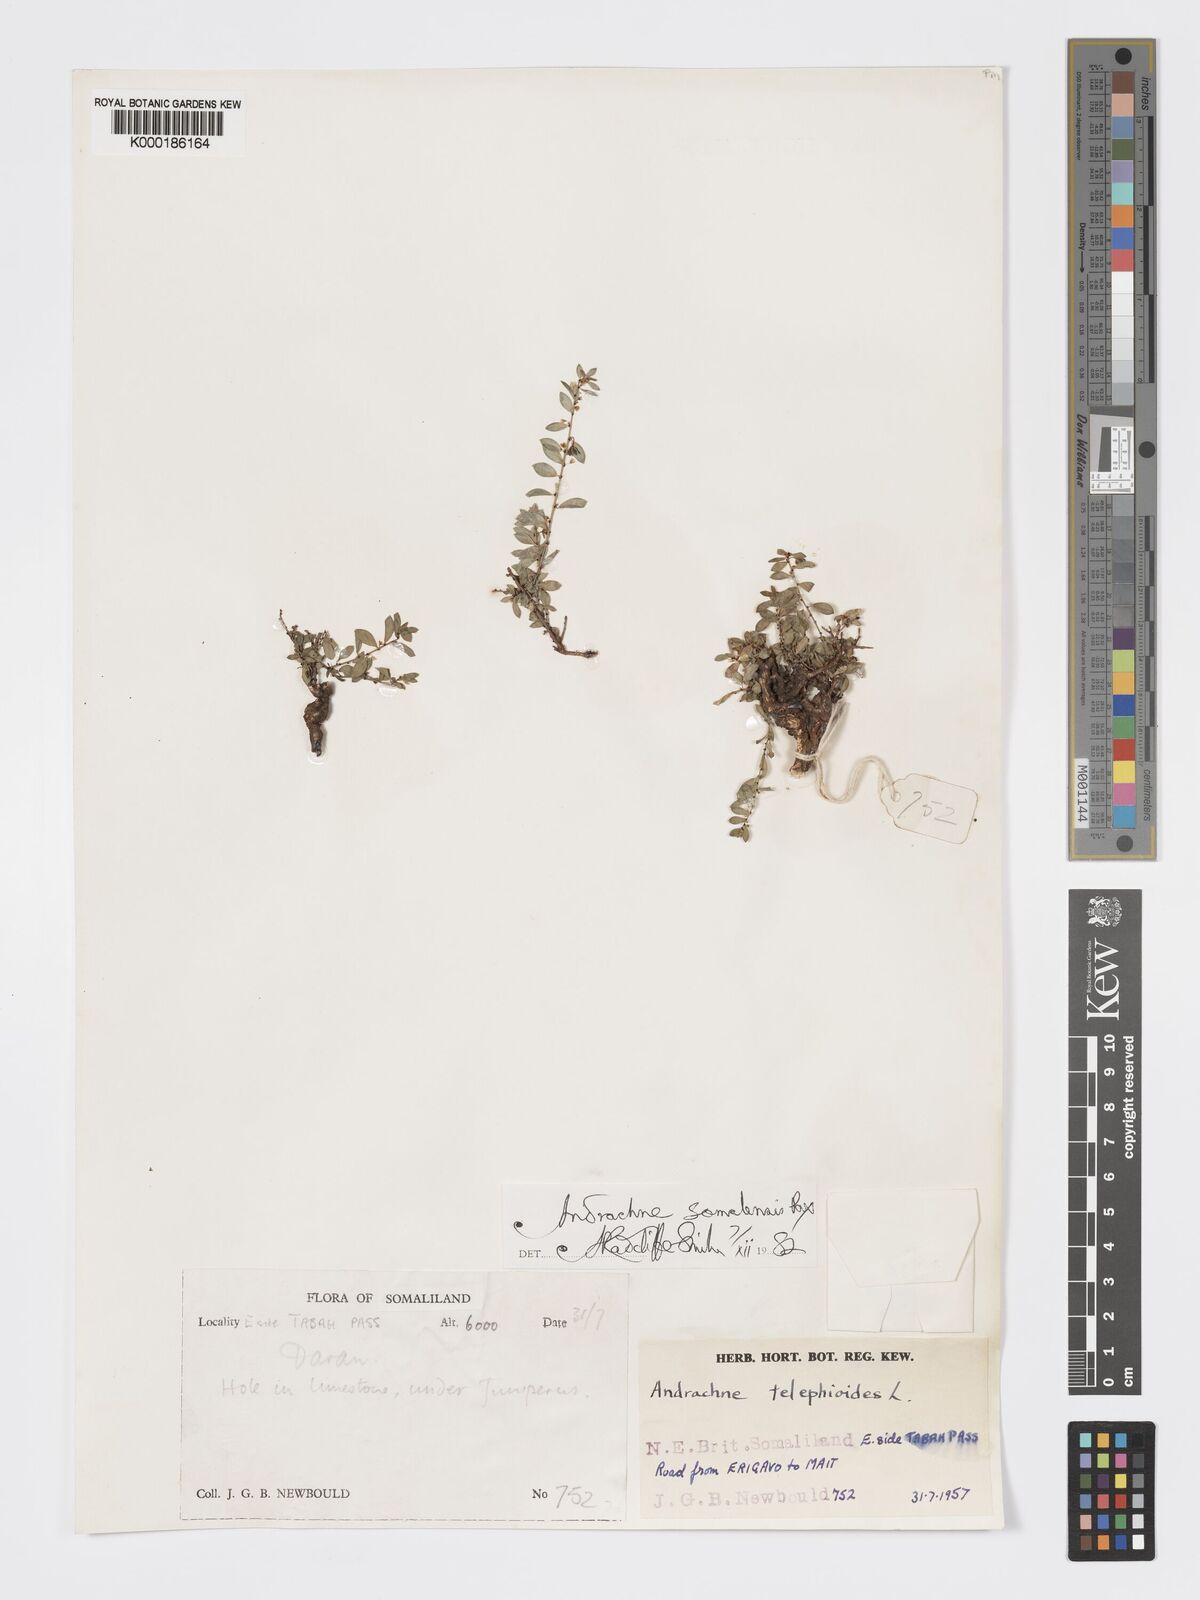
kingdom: Plantae
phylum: Tracheophyta
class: Magnoliopsida
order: Malpighiales
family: Phyllanthaceae
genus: Andrachne
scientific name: Andrachne schweinfurthii
